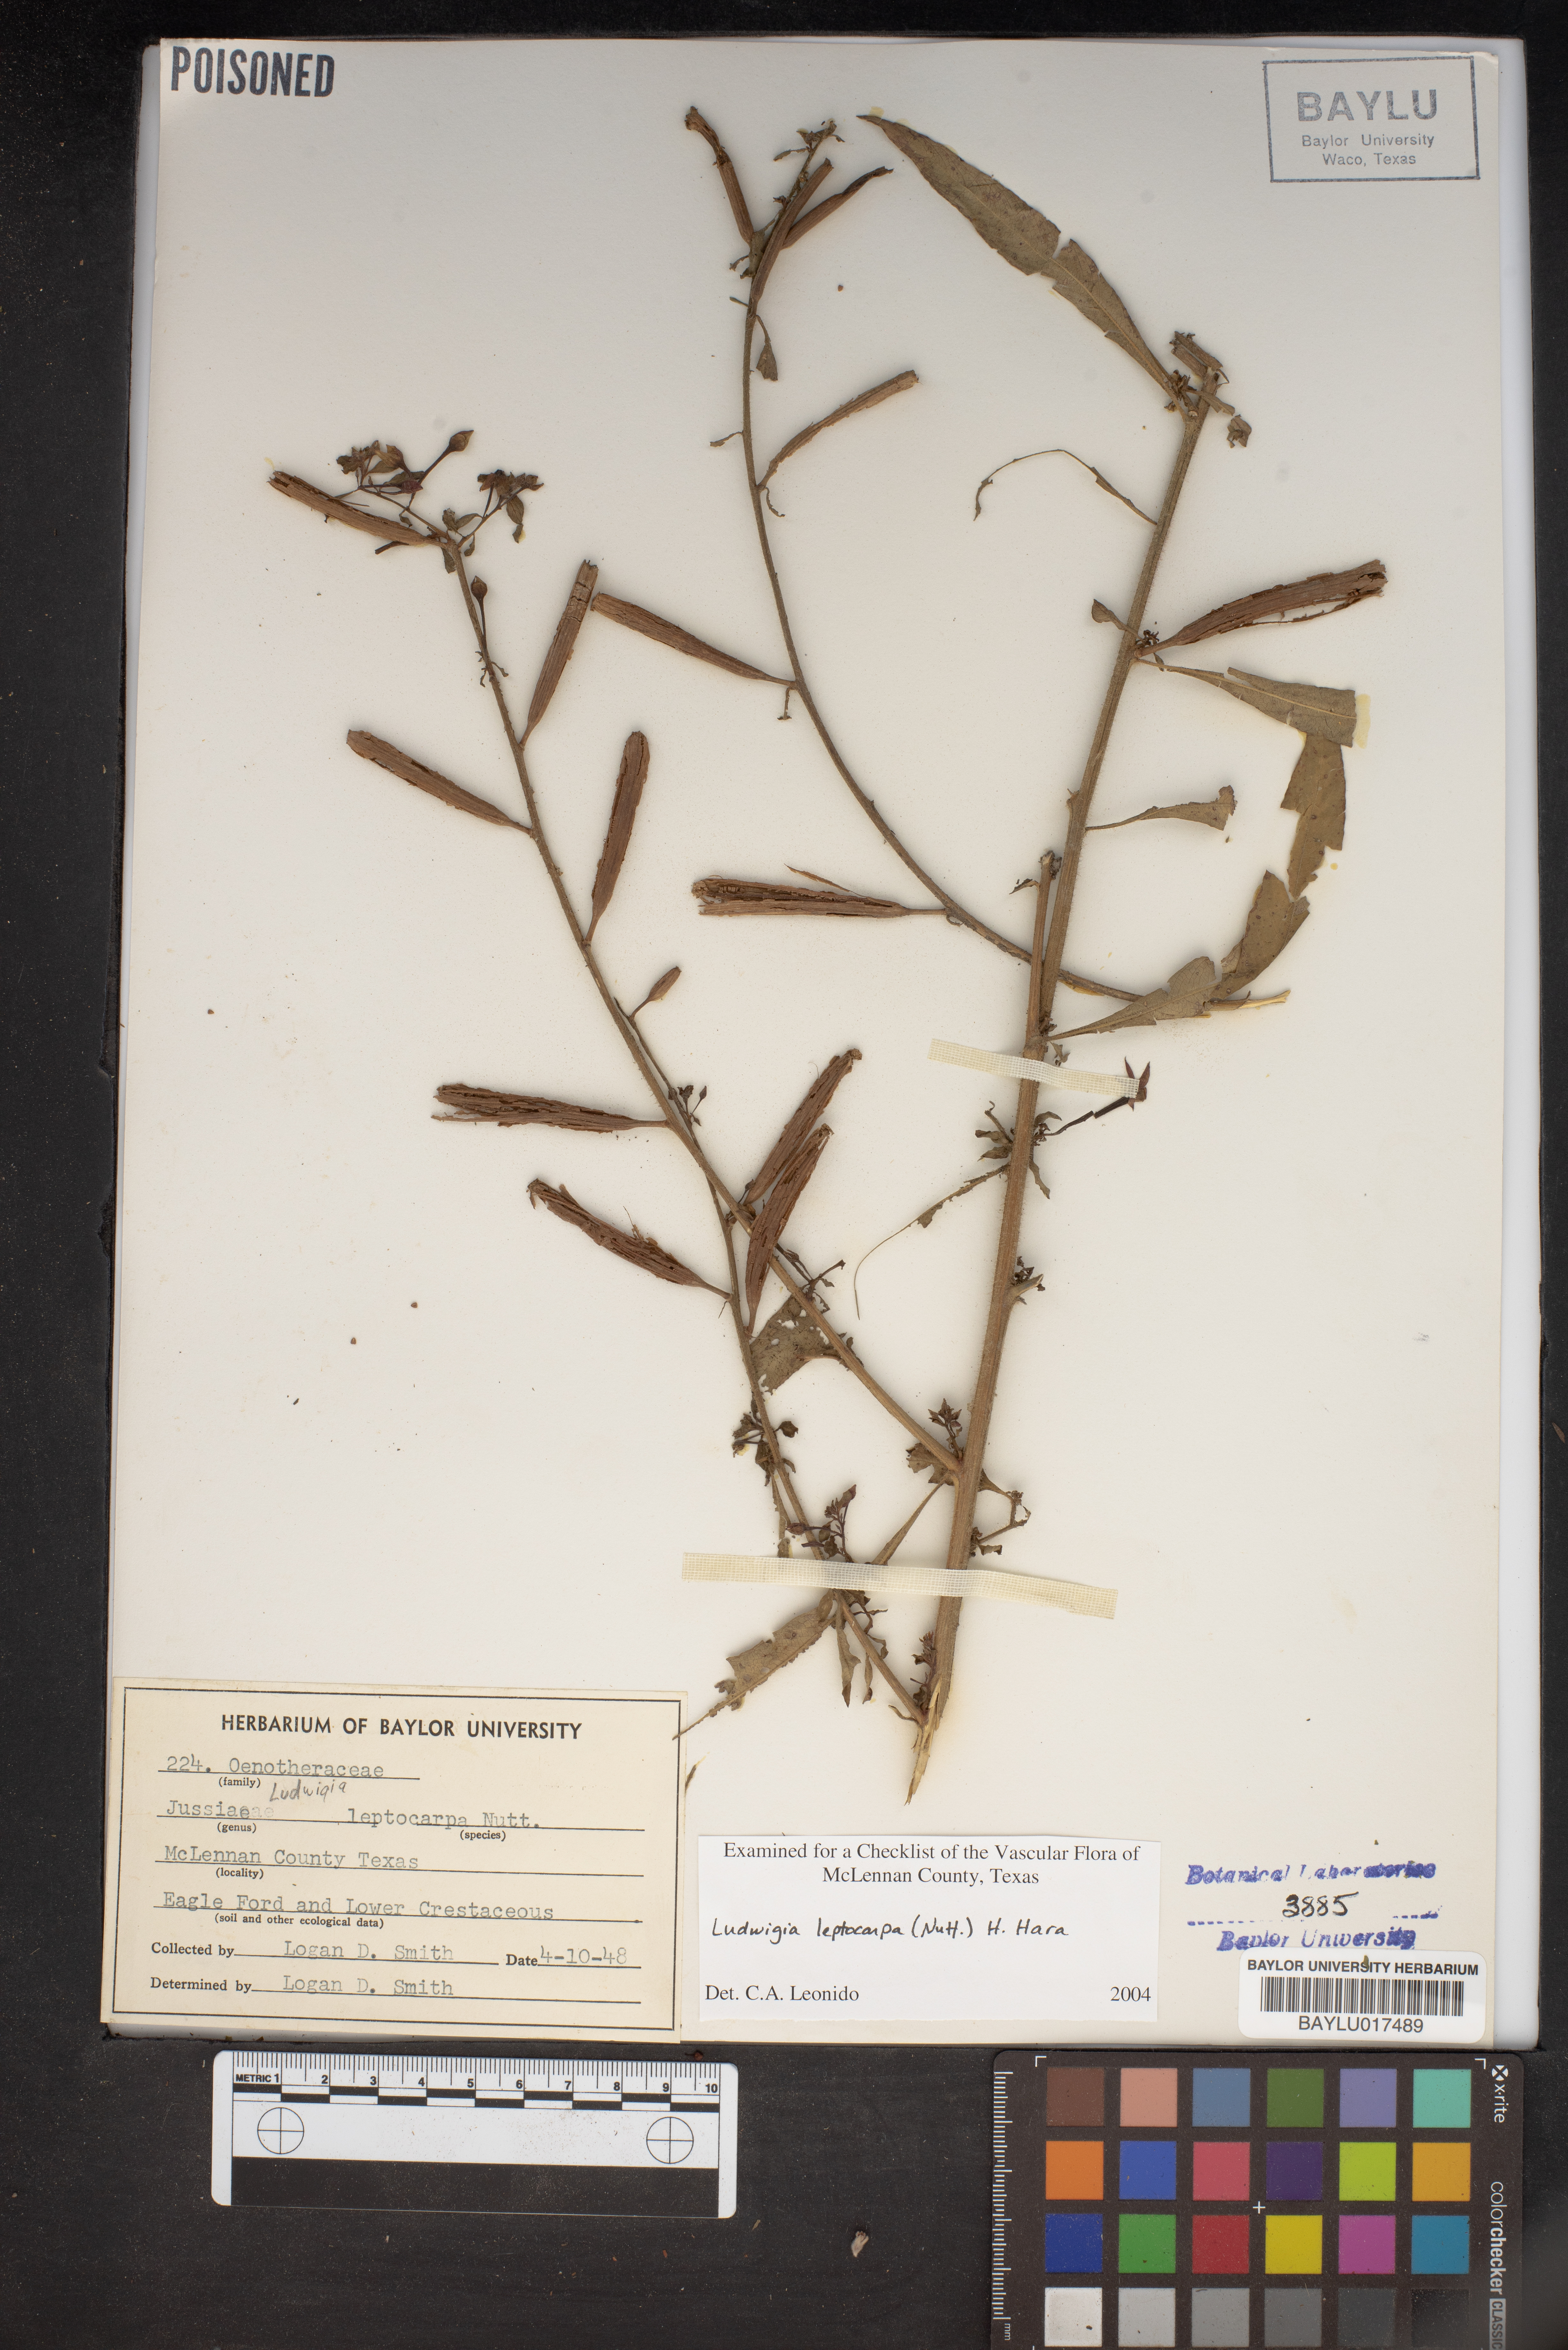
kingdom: Plantae
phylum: Tracheophyta
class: Magnoliopsida
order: Myrtales
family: Onagraceae
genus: Ludwigia
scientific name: Ludwigia leptocarpa
